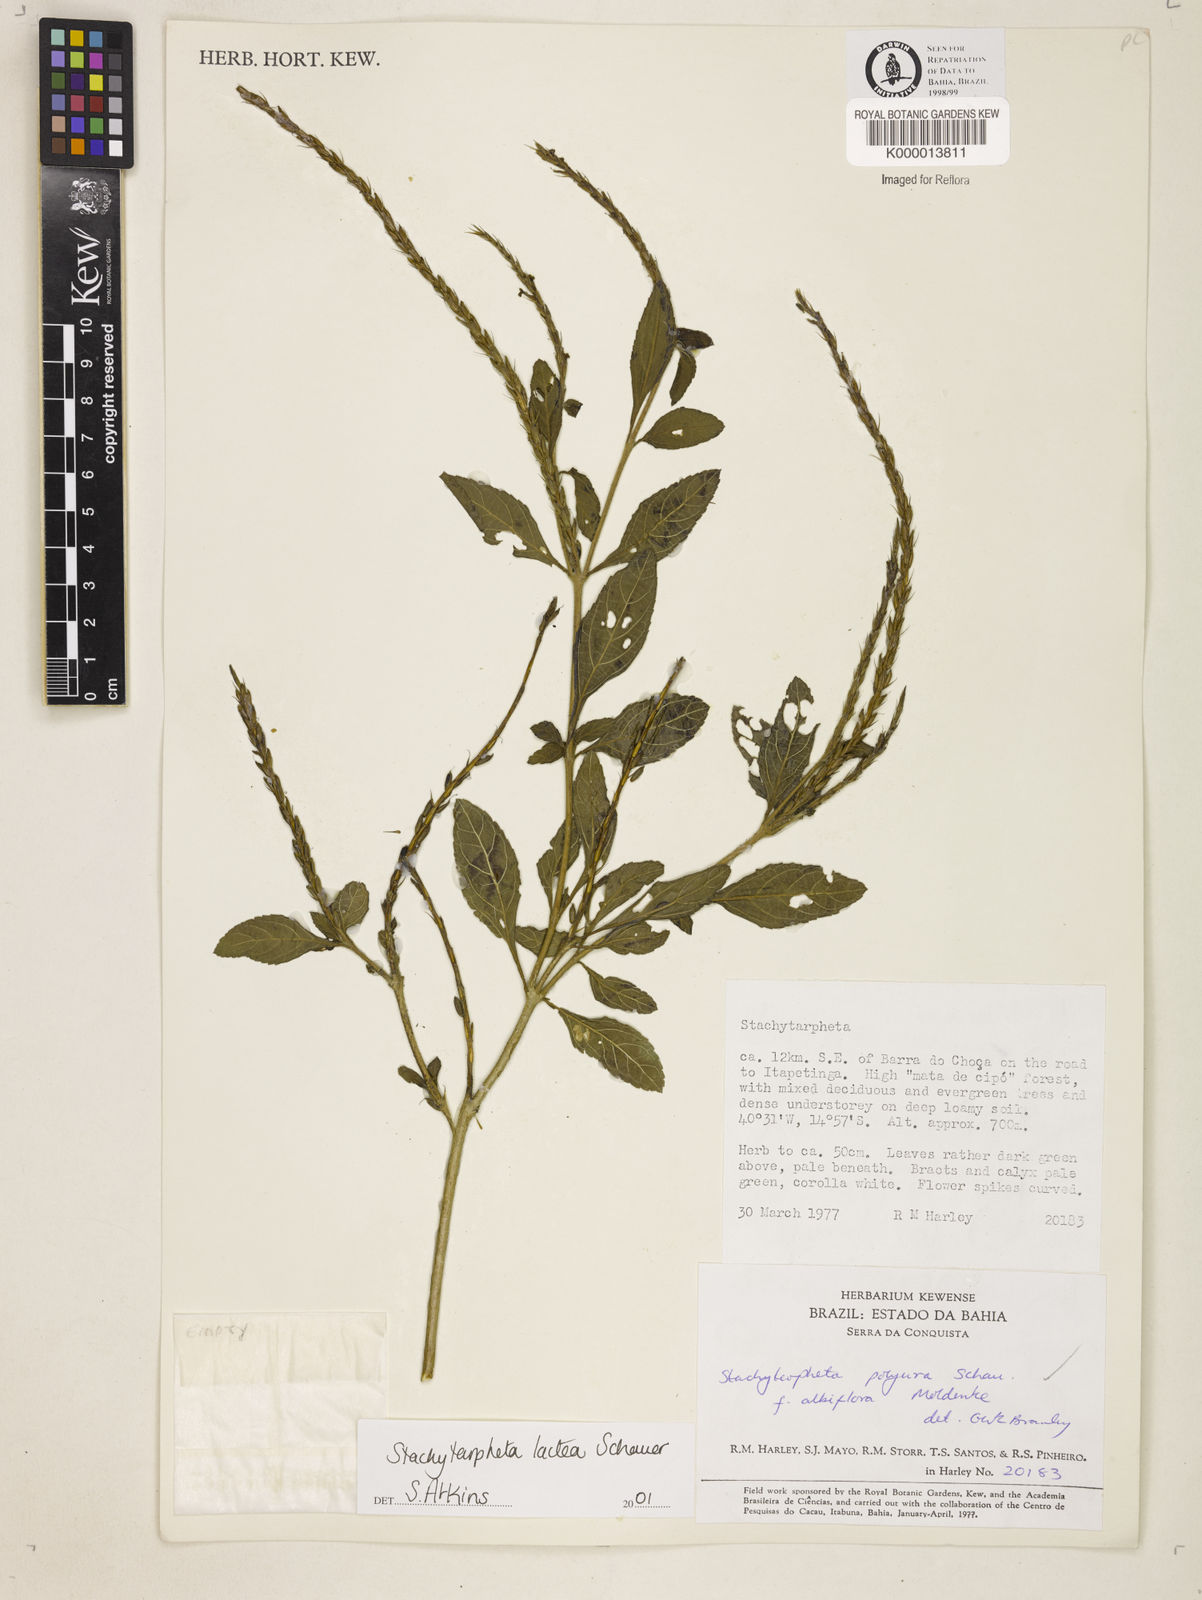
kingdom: Plantae
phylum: Tracheophyta
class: Magnoliopsida
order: Lamiales
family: Verbenaceae
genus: Stachytarpheta
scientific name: Stachytarpheta polyura
